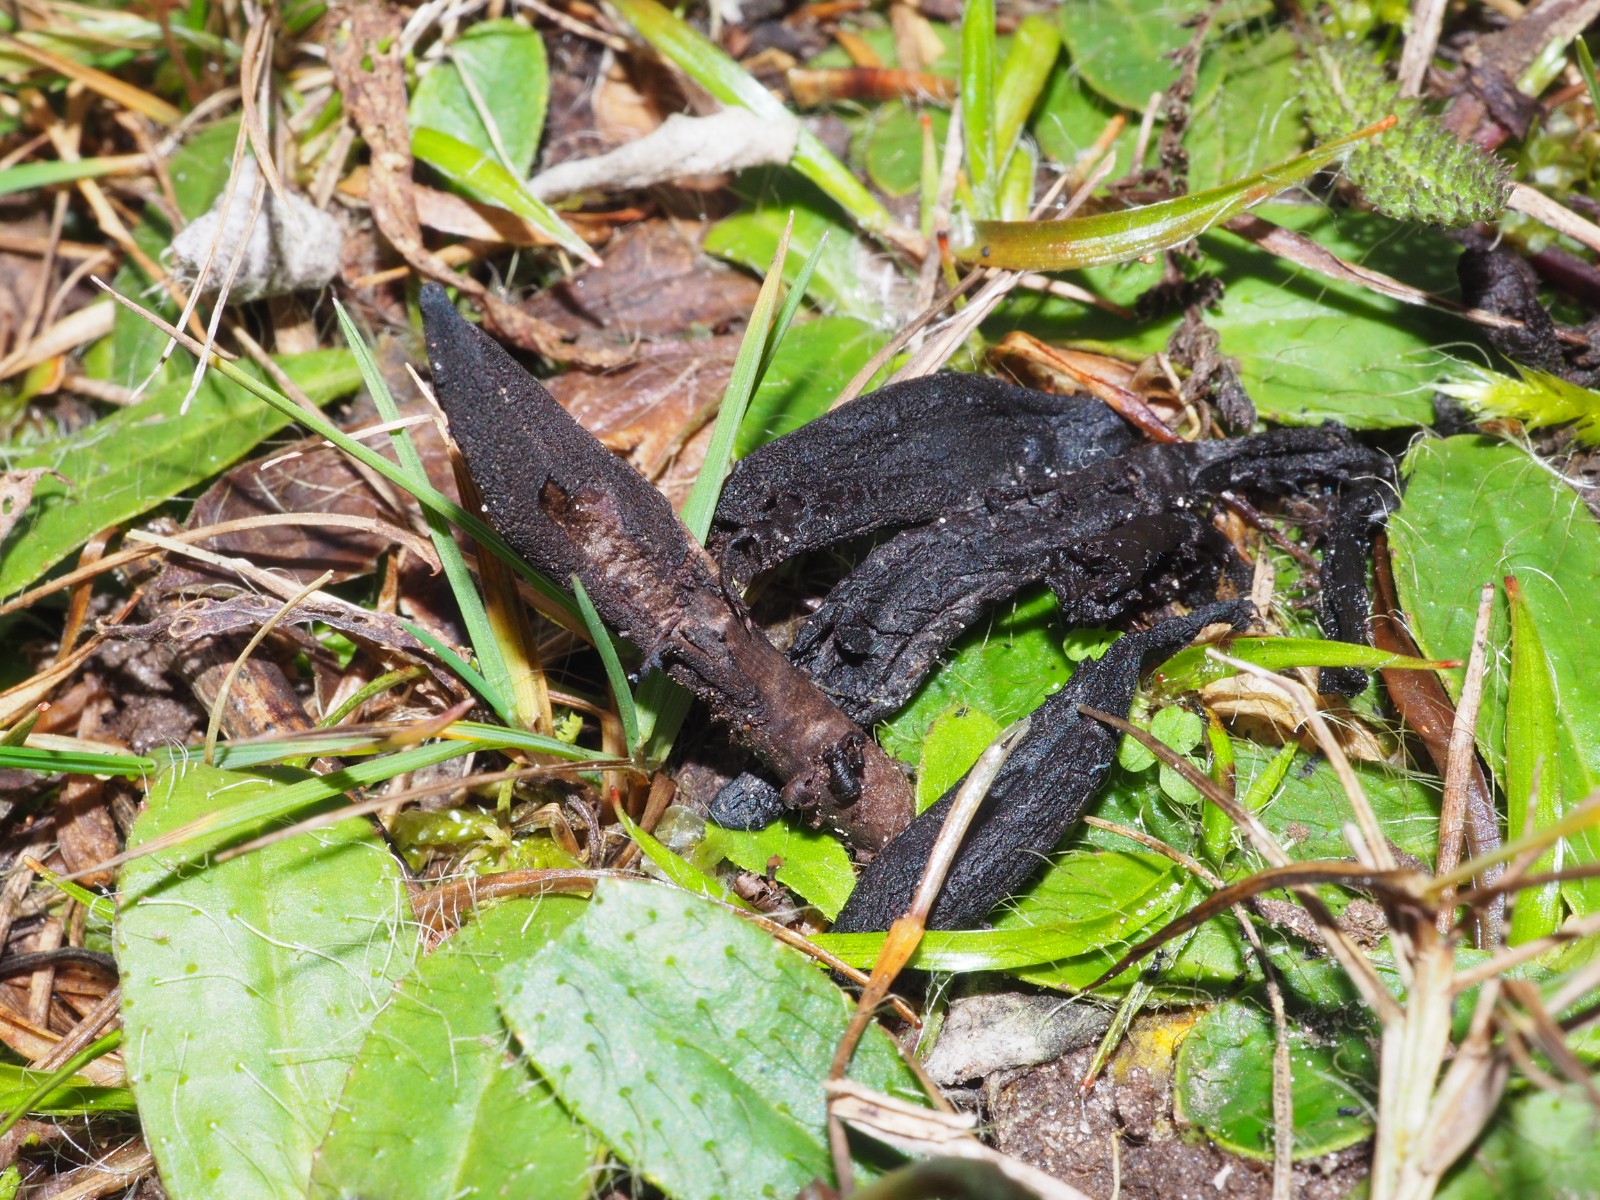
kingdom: Fungi
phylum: Ascomycota
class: Geoglossomycetes
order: Geoglossales
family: Geoglossaceae
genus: Geoglossum
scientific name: Geoglossum fallax
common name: småskællet jordtunge
